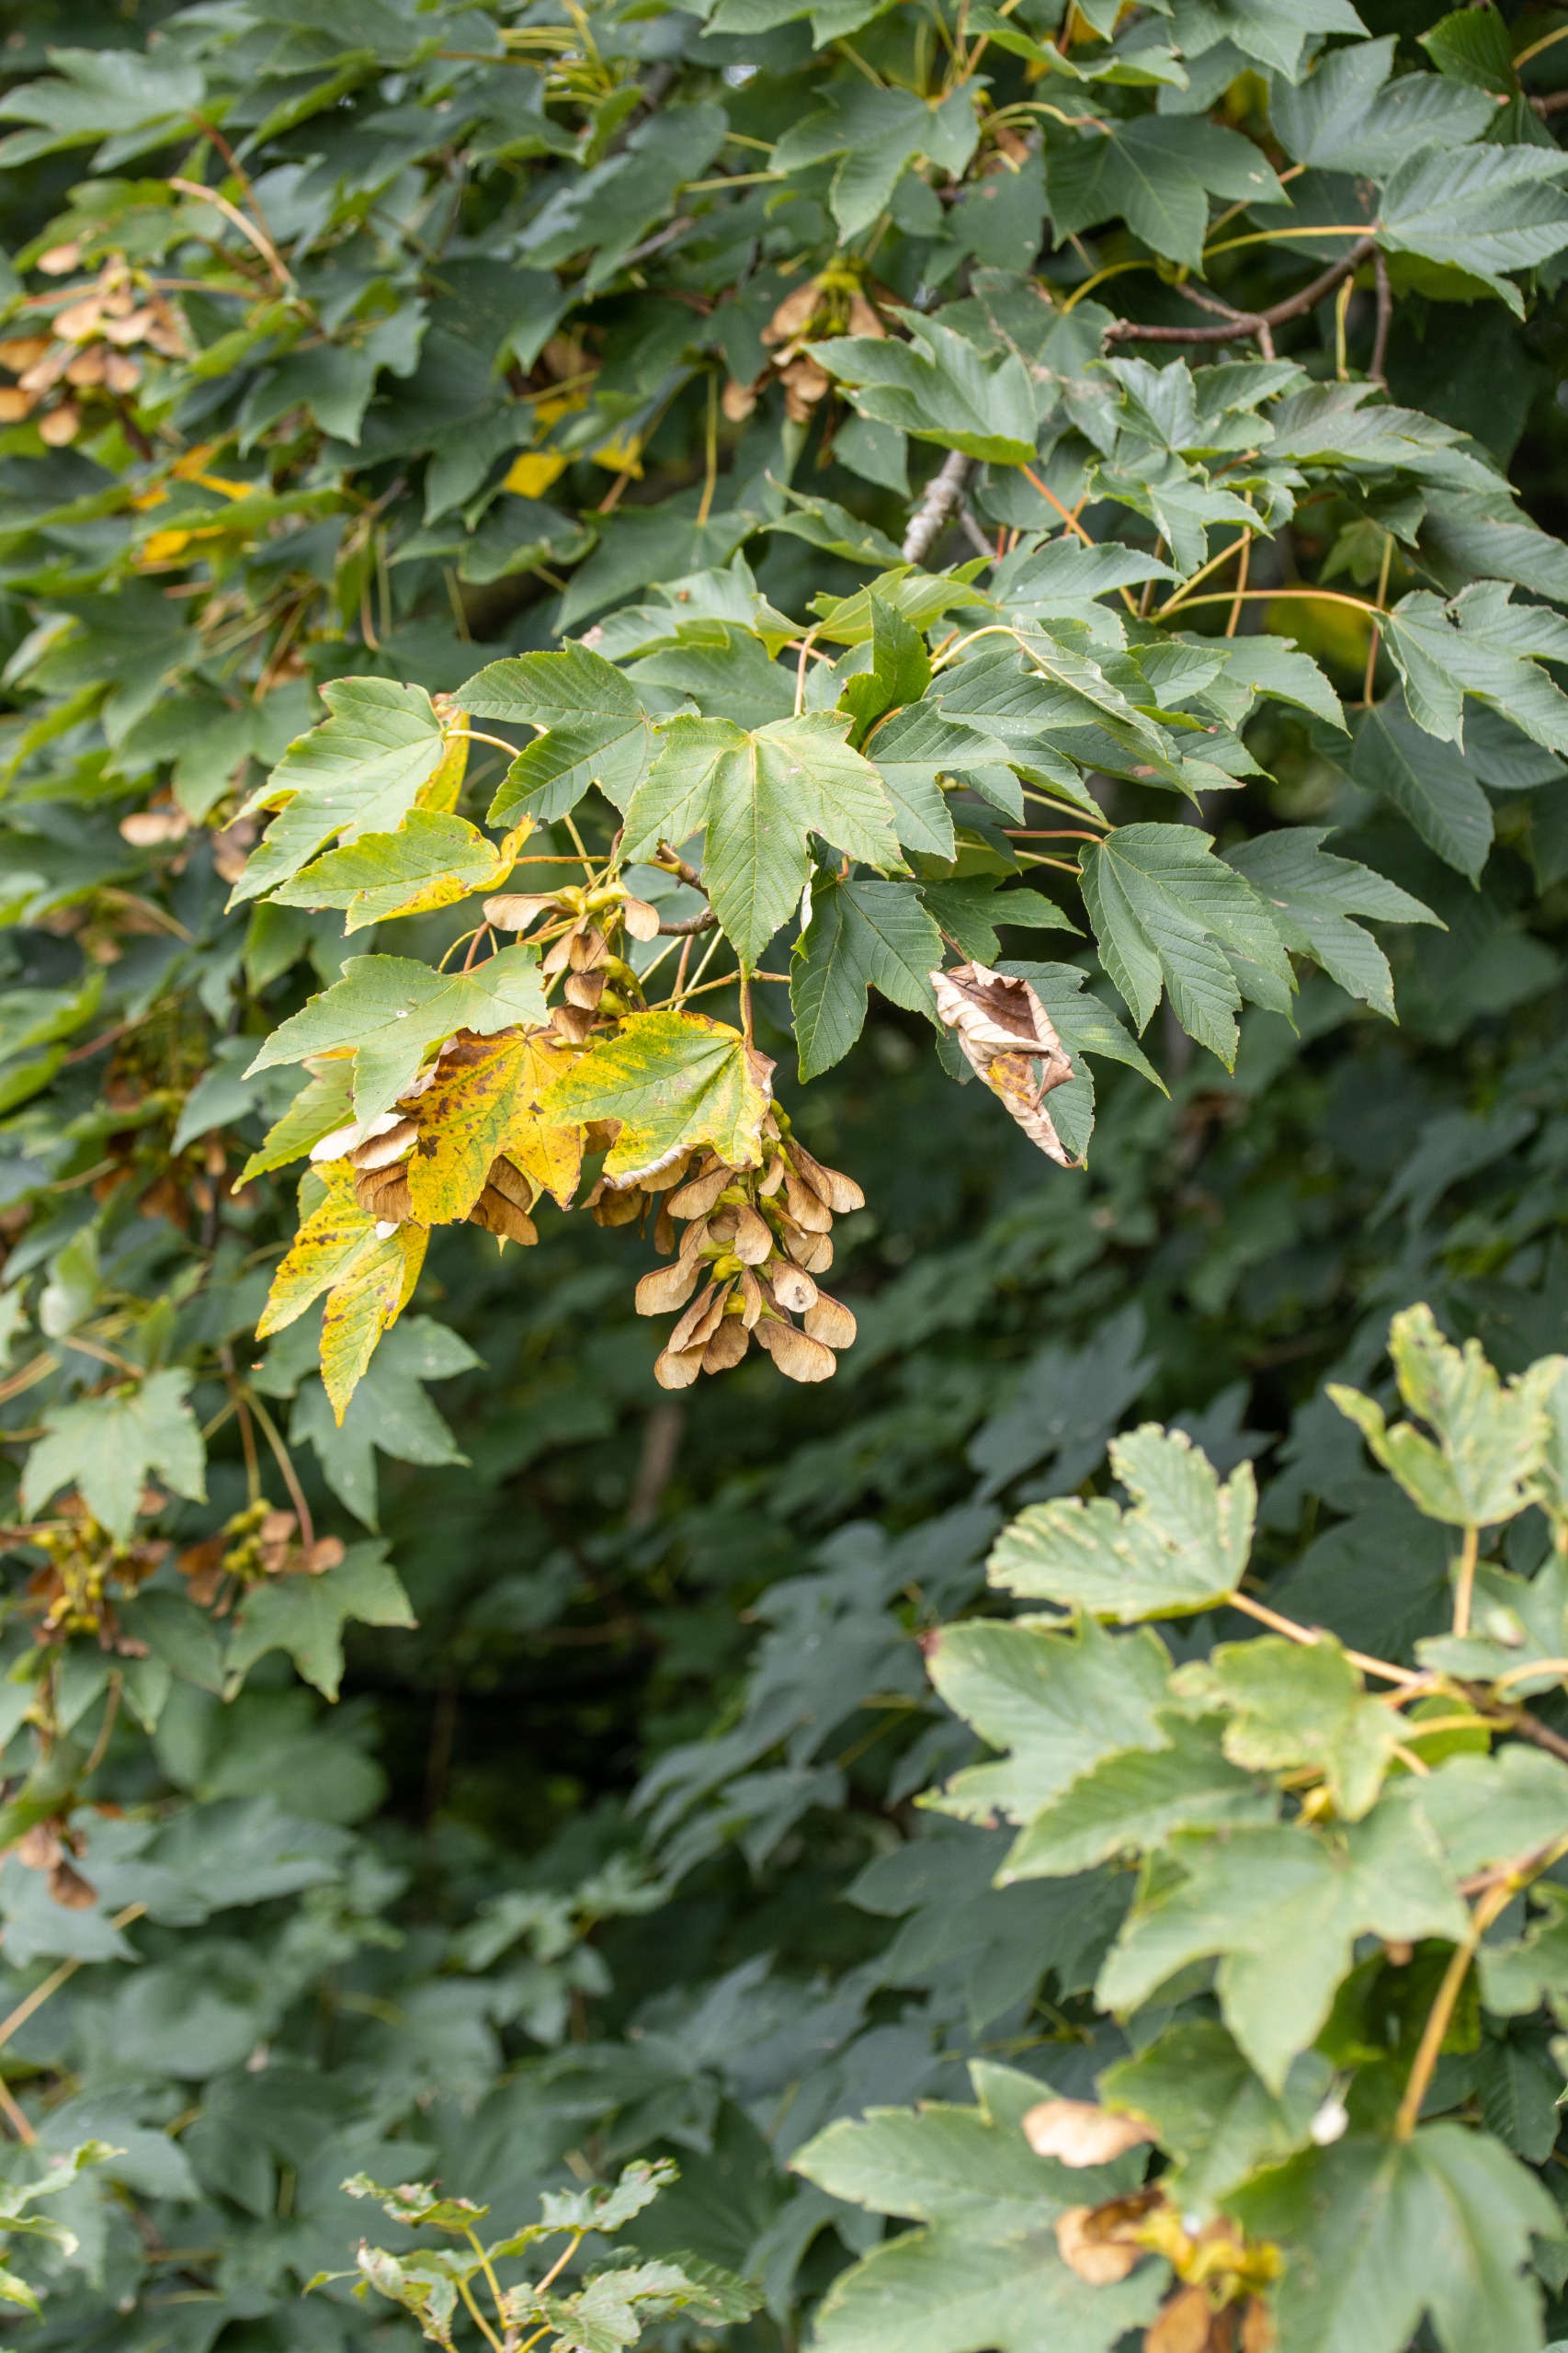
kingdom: Plantae
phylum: Tracheophyta
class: Magnoliopsida
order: Sapindales
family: Sapindaceae
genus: Acer
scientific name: Acer pseudoplatanus
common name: Ahorn
